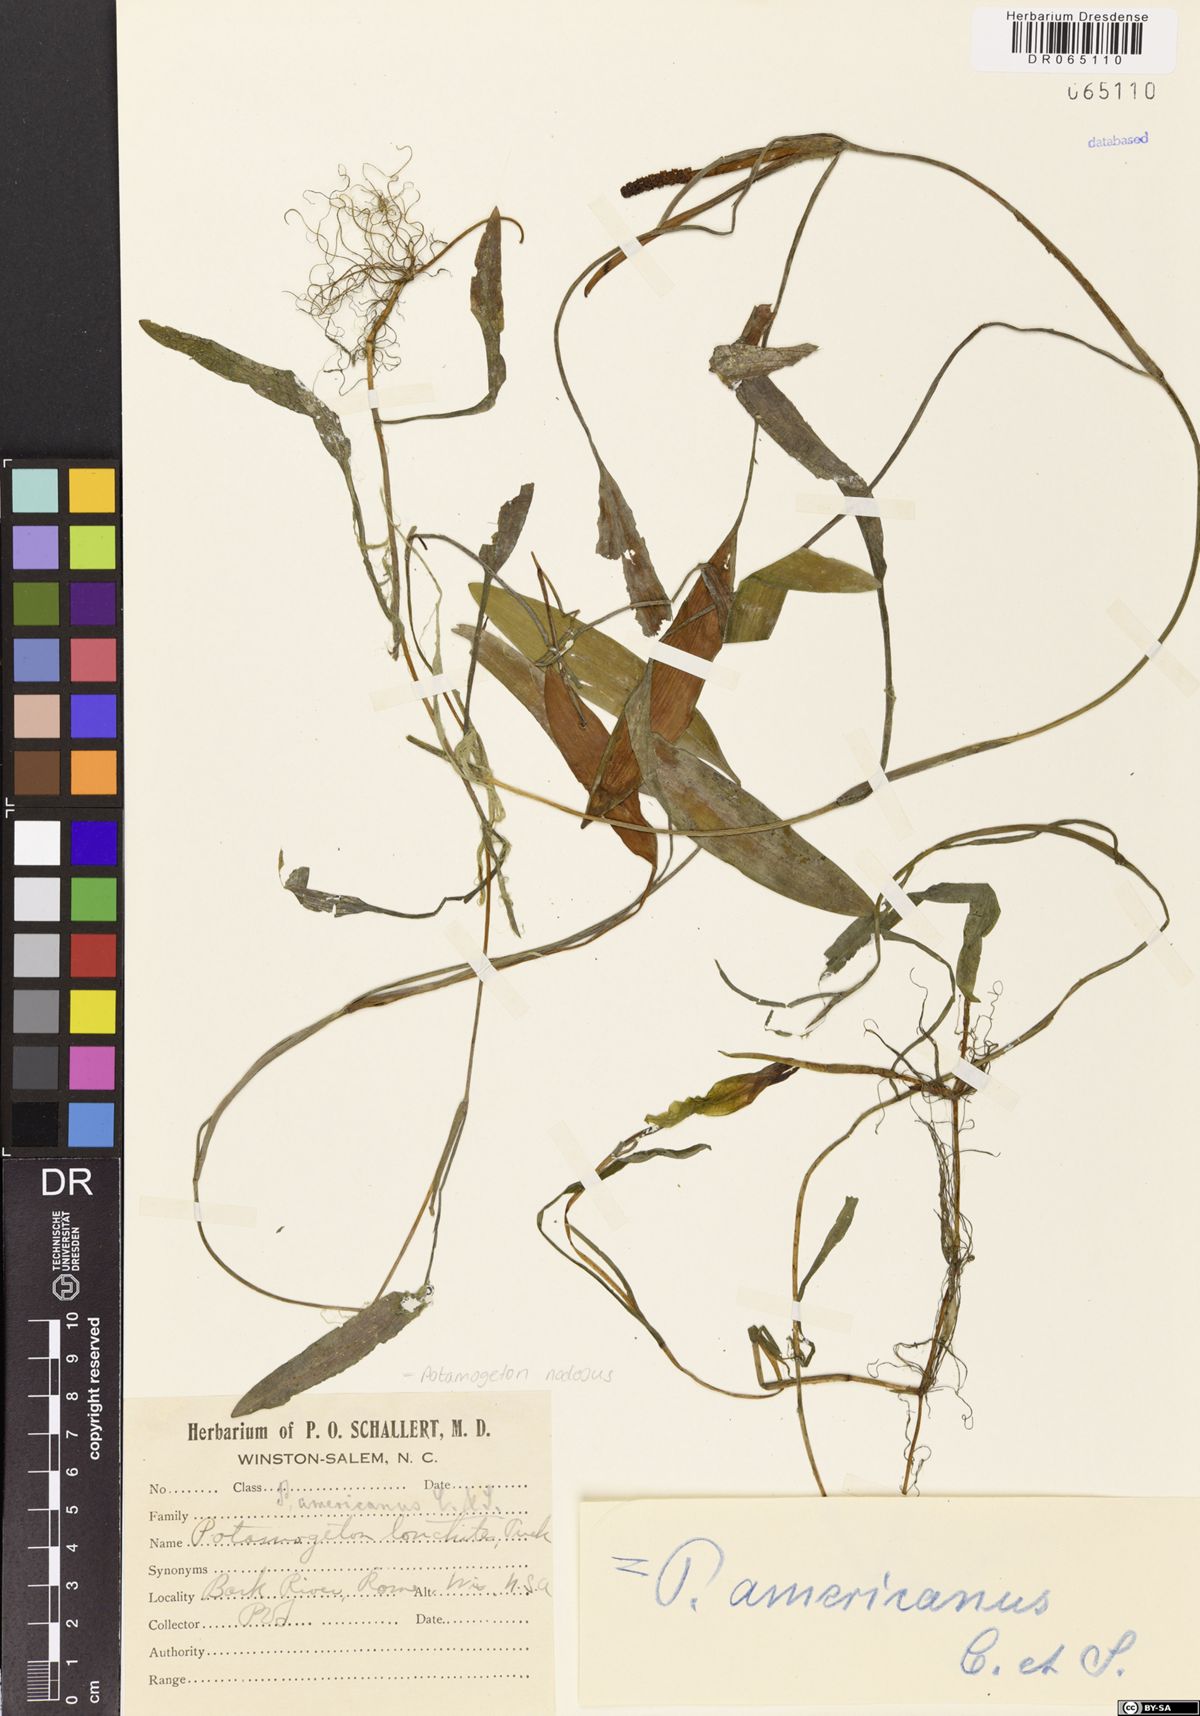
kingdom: Plantae
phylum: Tracheophyta
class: Liliopsida
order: Alismatales
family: Potamogetonaceae
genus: Potamogeton
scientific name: Potamogeton nodosus
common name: Loddon pondweed
